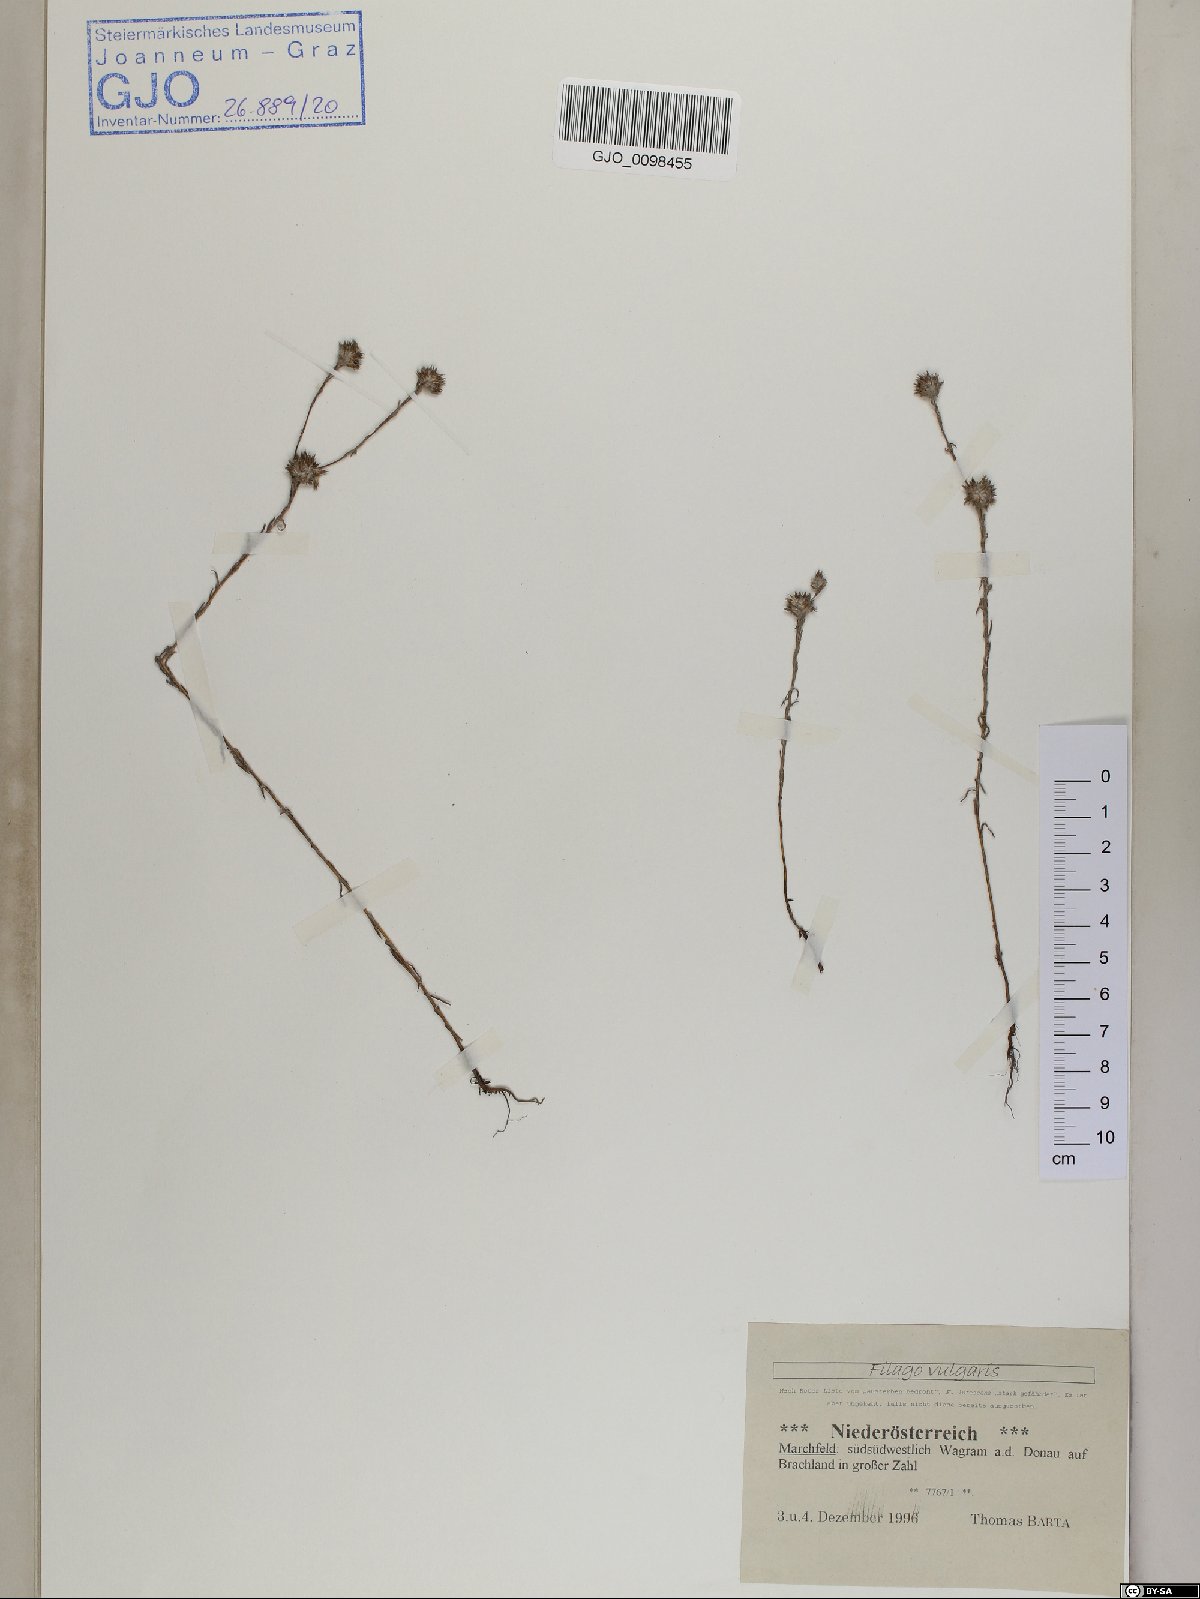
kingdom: Plantae
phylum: Tracheophyta
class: Magnoliopsida
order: Asterales
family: Asteraceae
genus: Filago
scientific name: Filago germanica
